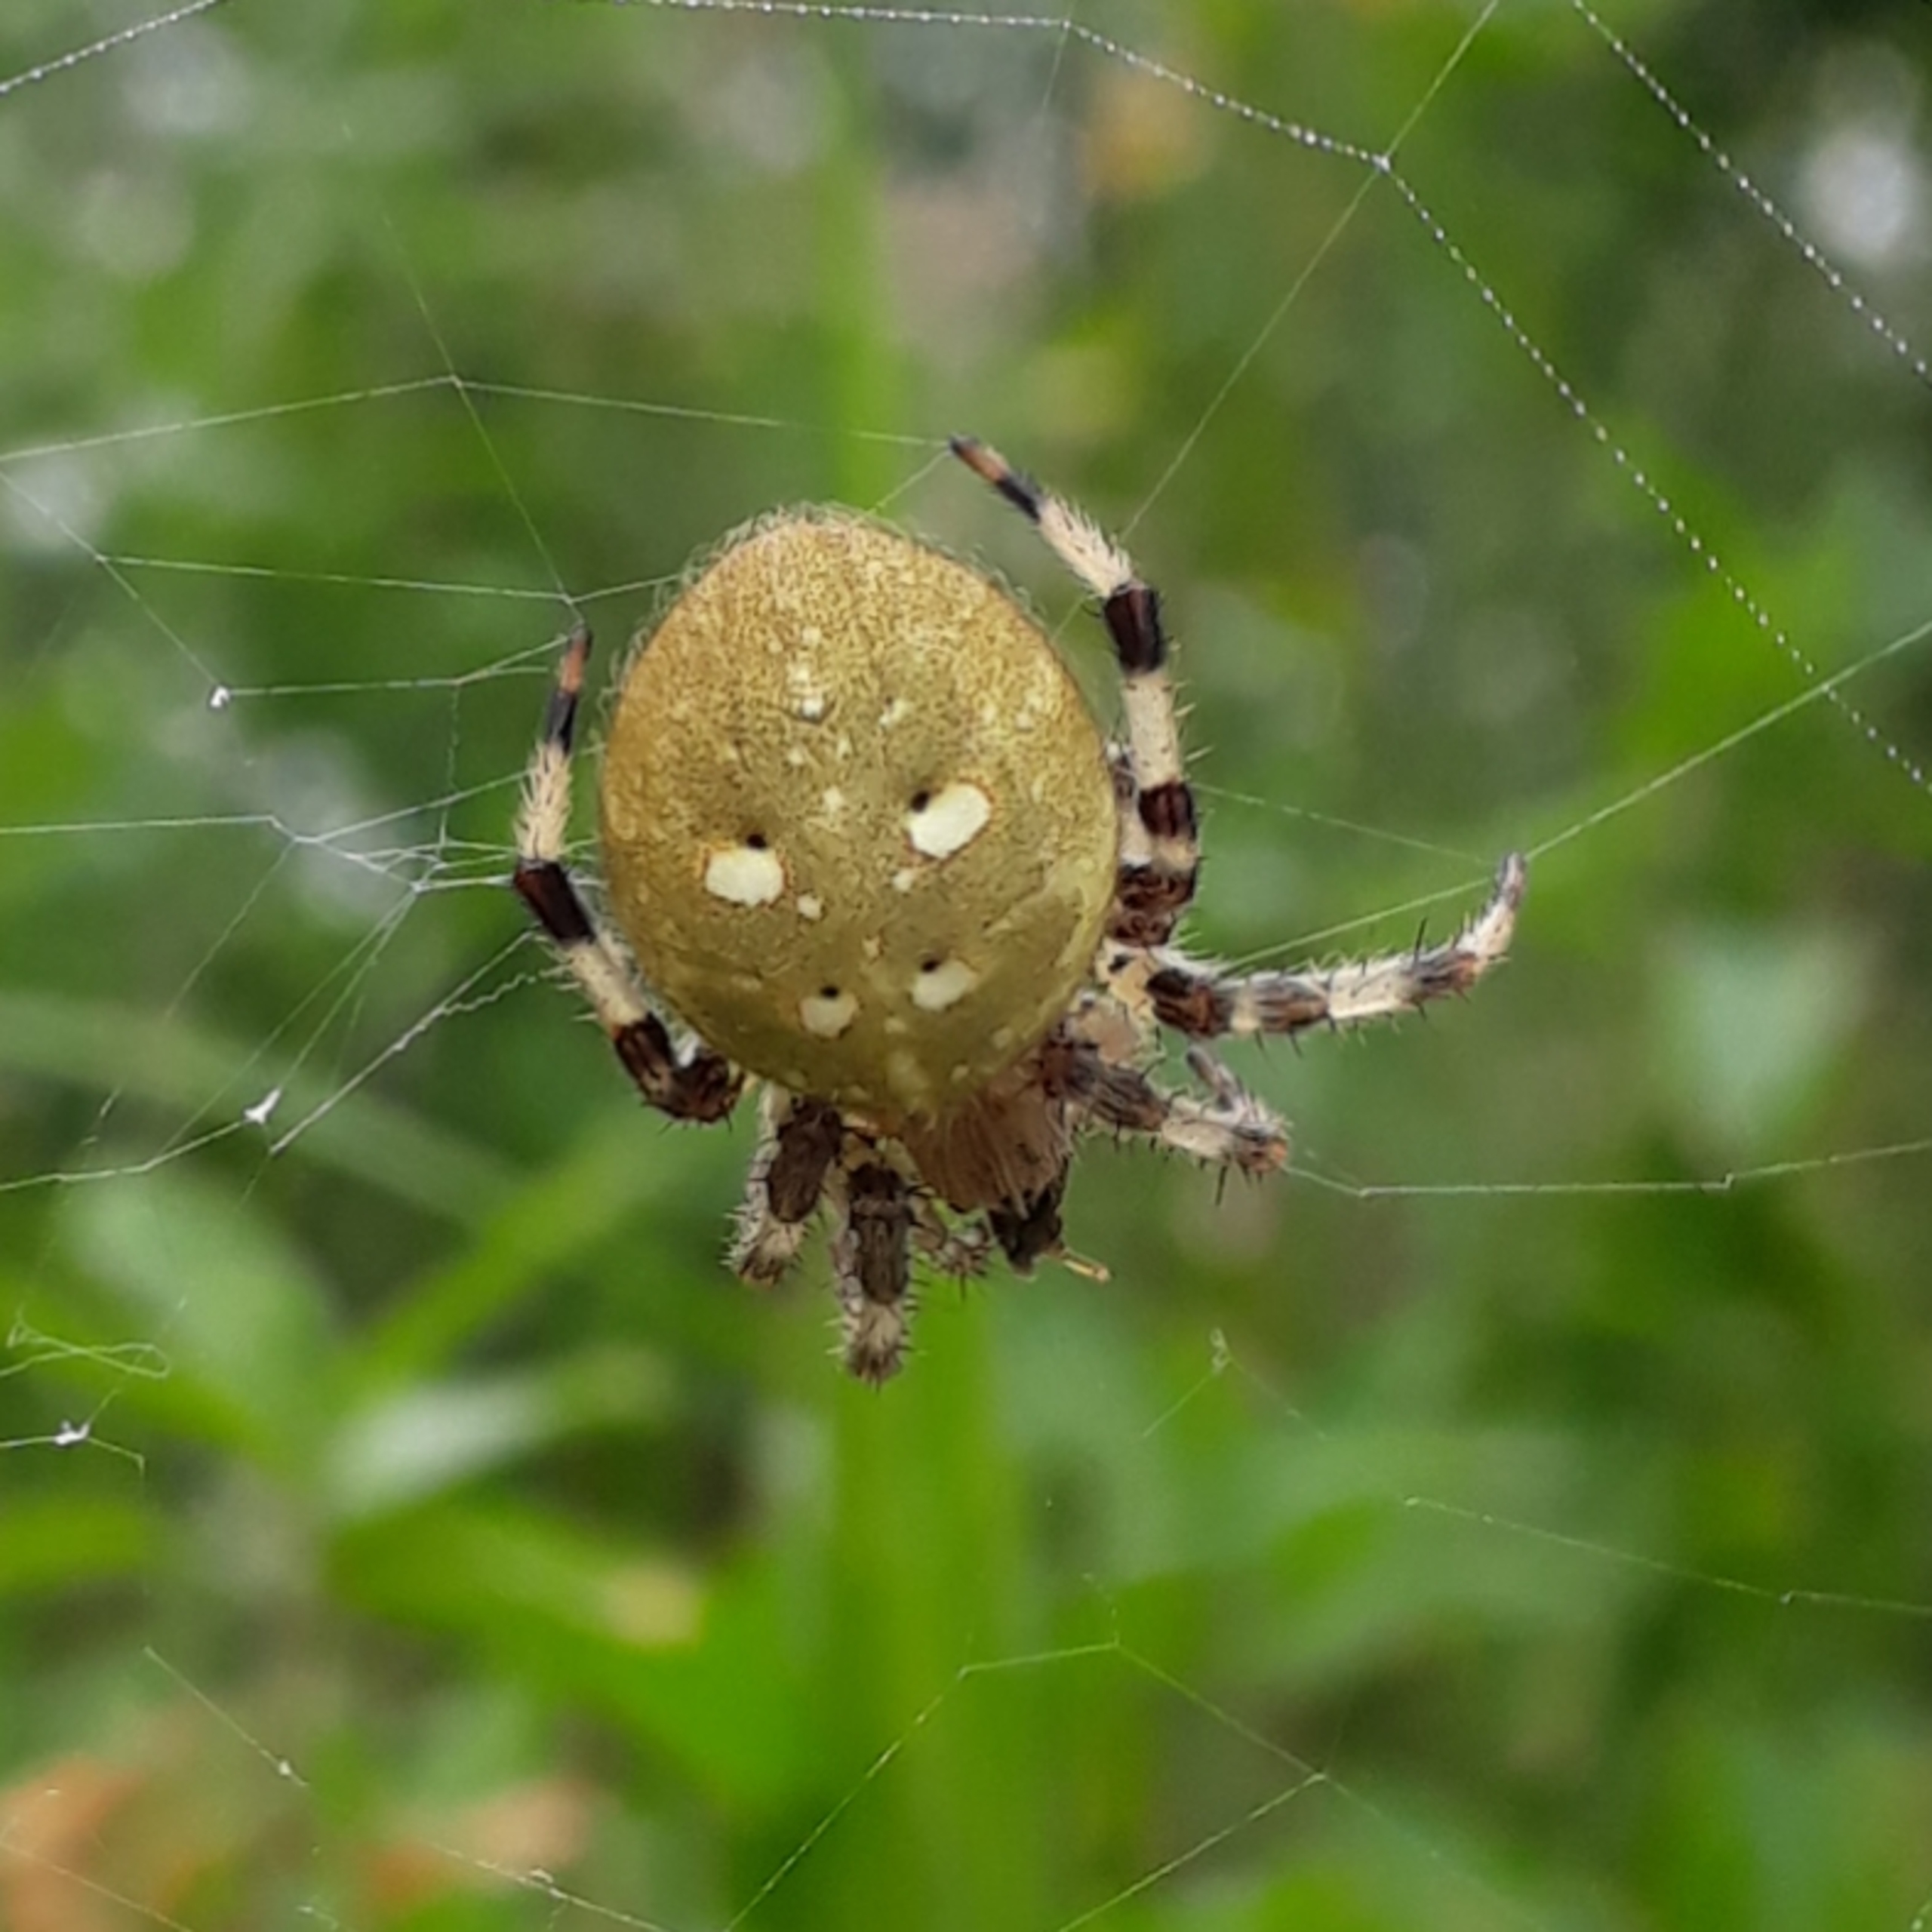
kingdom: Animalia
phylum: Arthropoda
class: Arachnida
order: Araneae
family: Araneidae
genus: Araneus
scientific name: Araneus quadratus
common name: Kvadratedderkop
